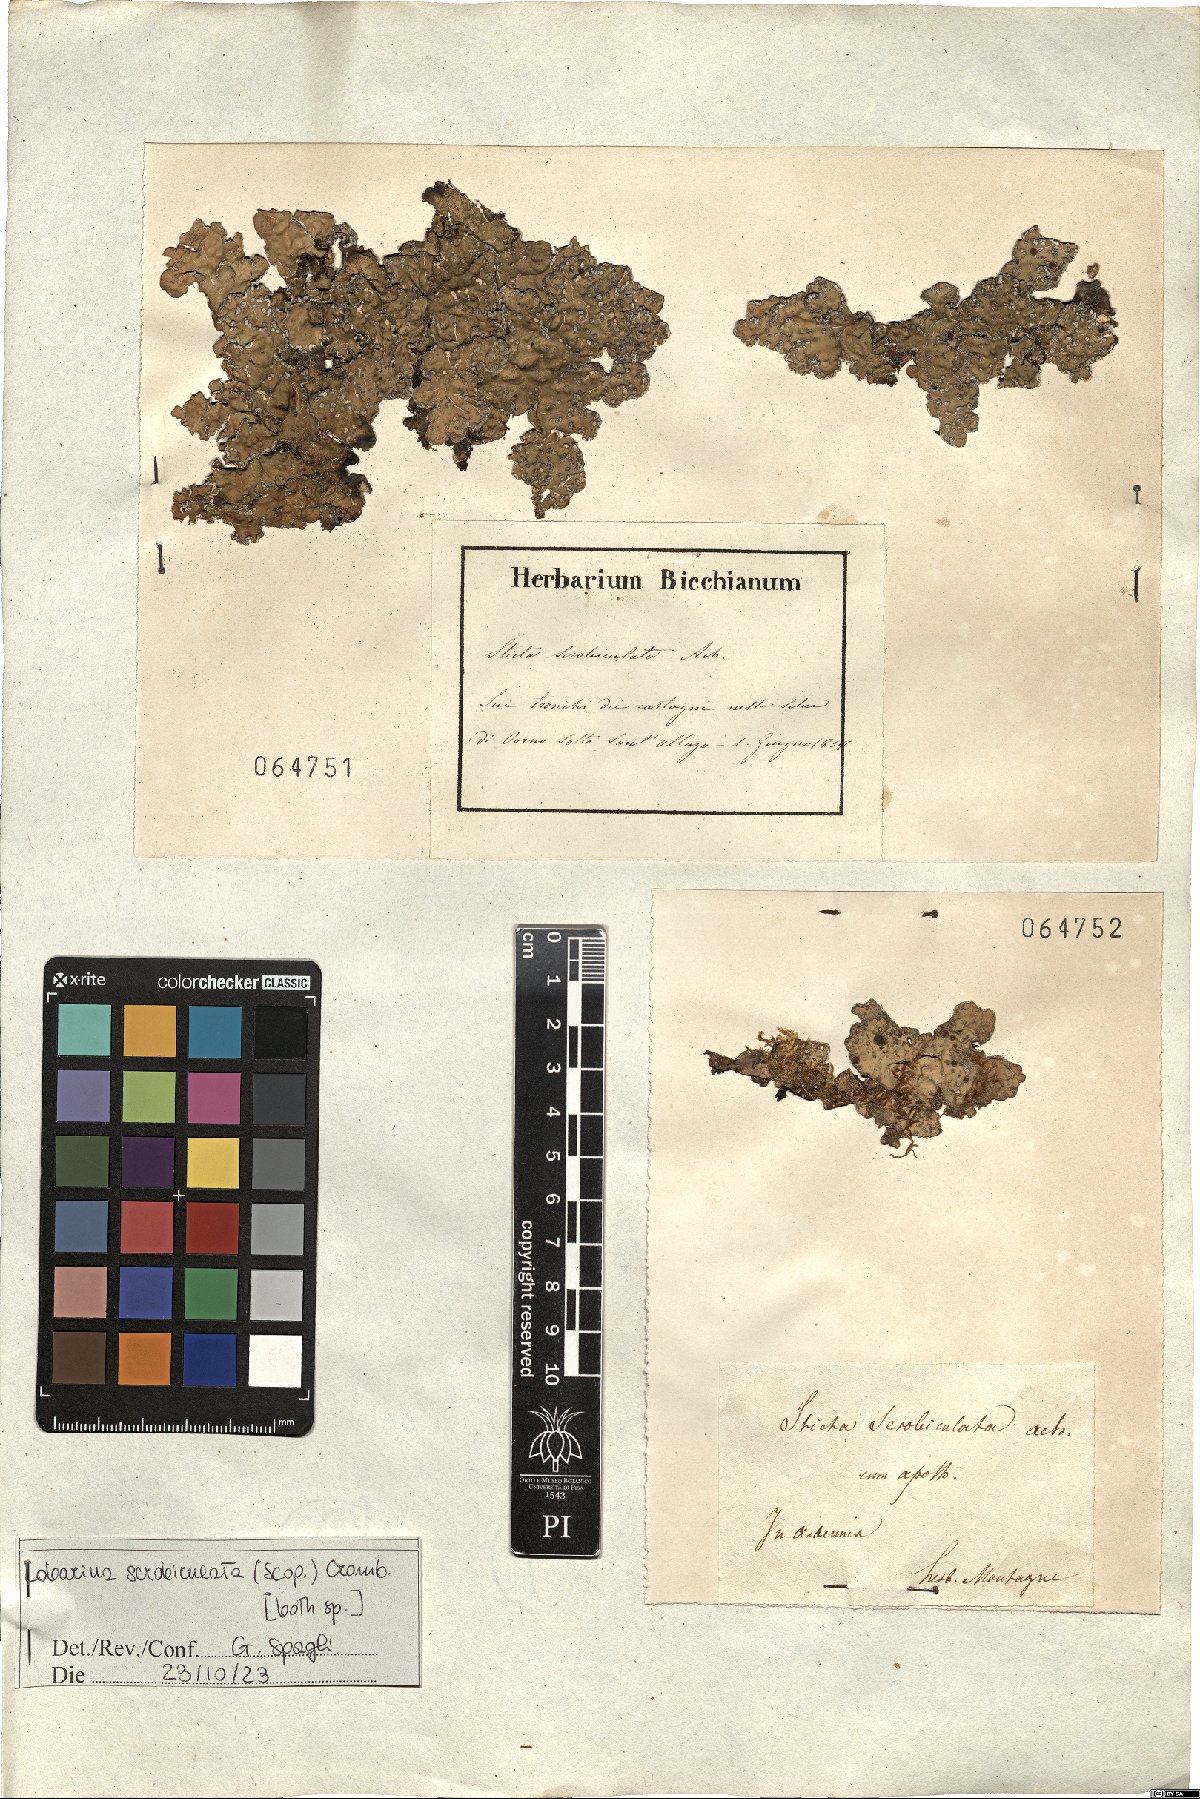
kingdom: Fungi
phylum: Ascomycota
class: Lecanoromycetes
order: Peltigerales
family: Lobariaceae
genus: Lobarina
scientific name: Lobarina scrobiculata
